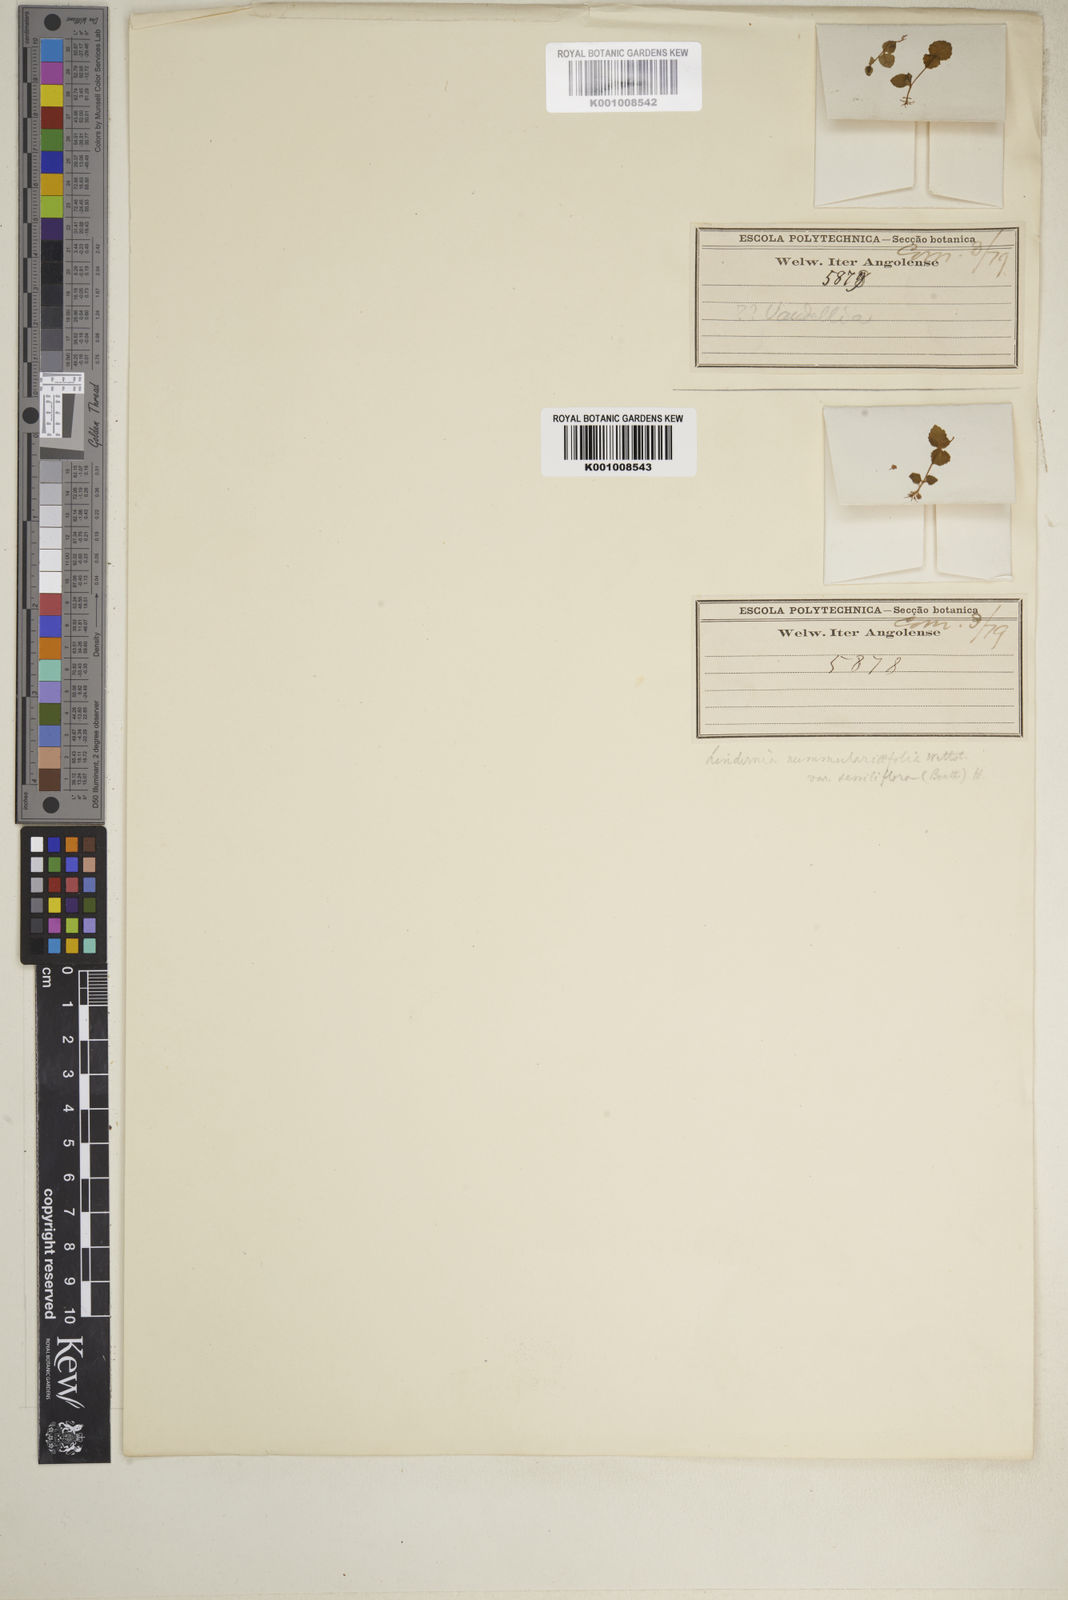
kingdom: Plantae
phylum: Tracheophyta
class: Magnoliopsida
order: Lamiales
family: Linderniaceae
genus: Craterostigma
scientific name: Craterostigma nummulariifolium
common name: False pimpernel
